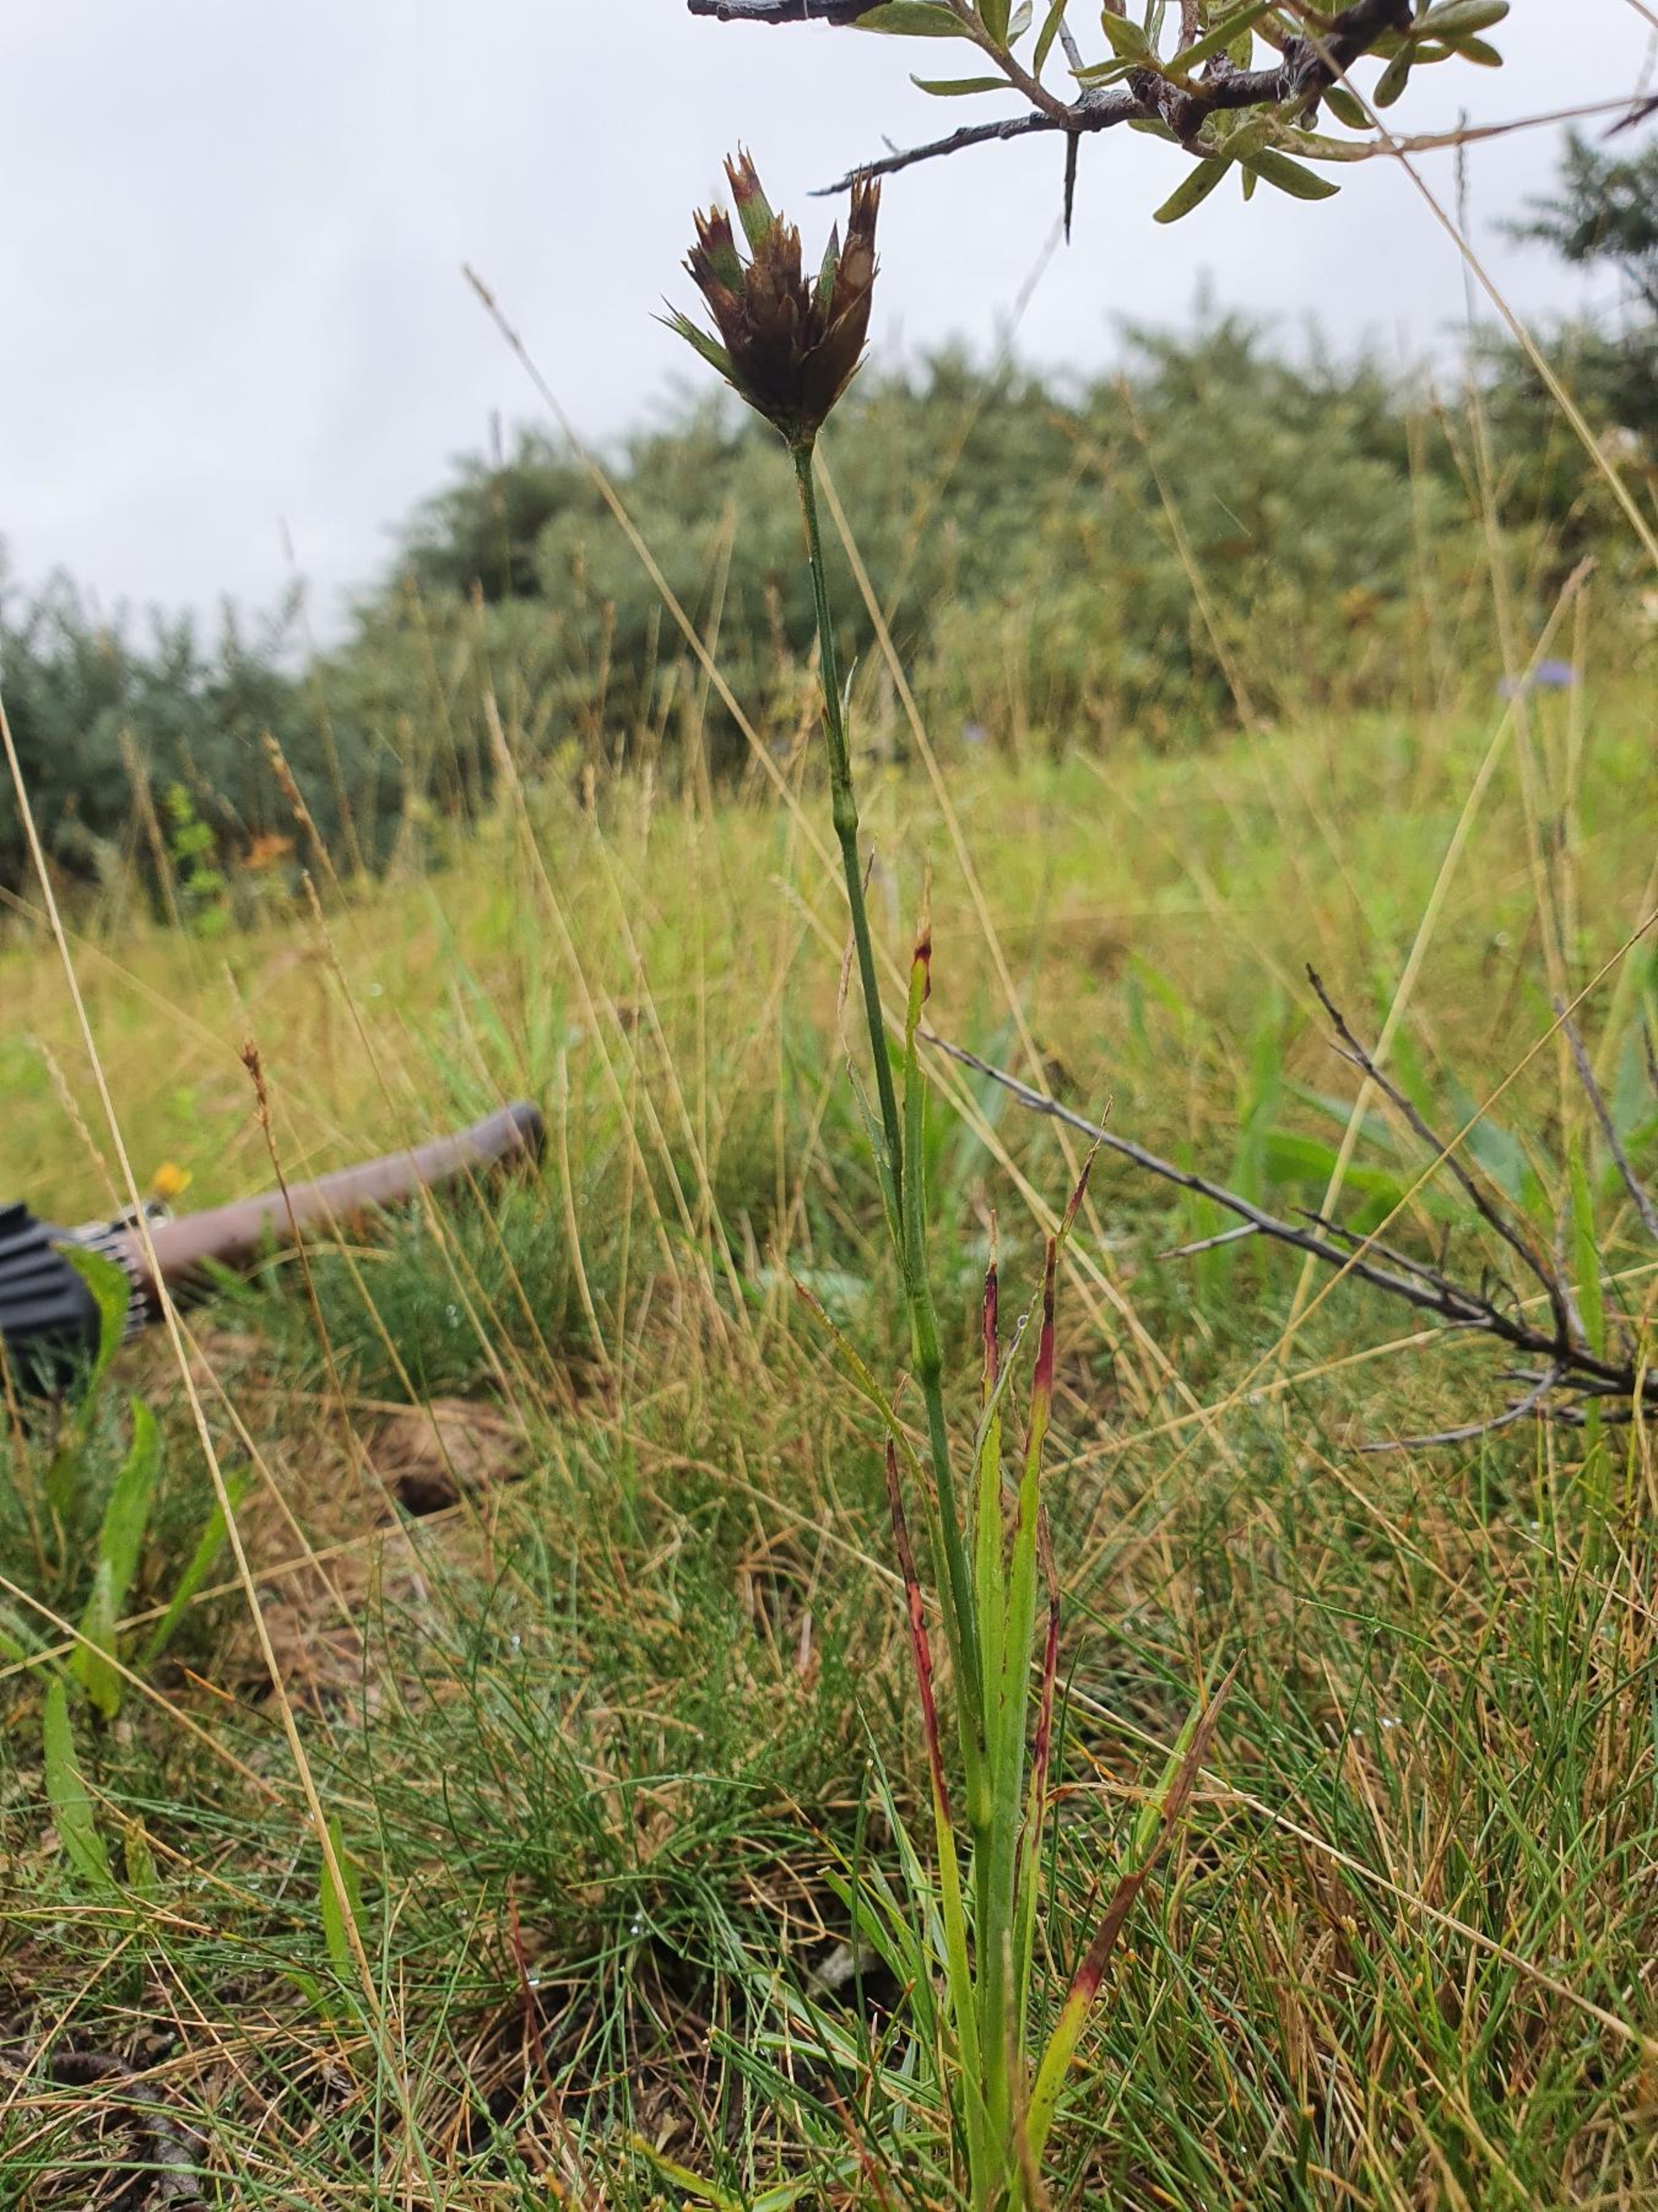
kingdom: Plantae
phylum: Tracheophyta
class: Magnoliopsida
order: Caryophyllales
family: Caryophyllaceae
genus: Dianthus
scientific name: Dianthus carthusianorum
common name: Karteuser-nellike
